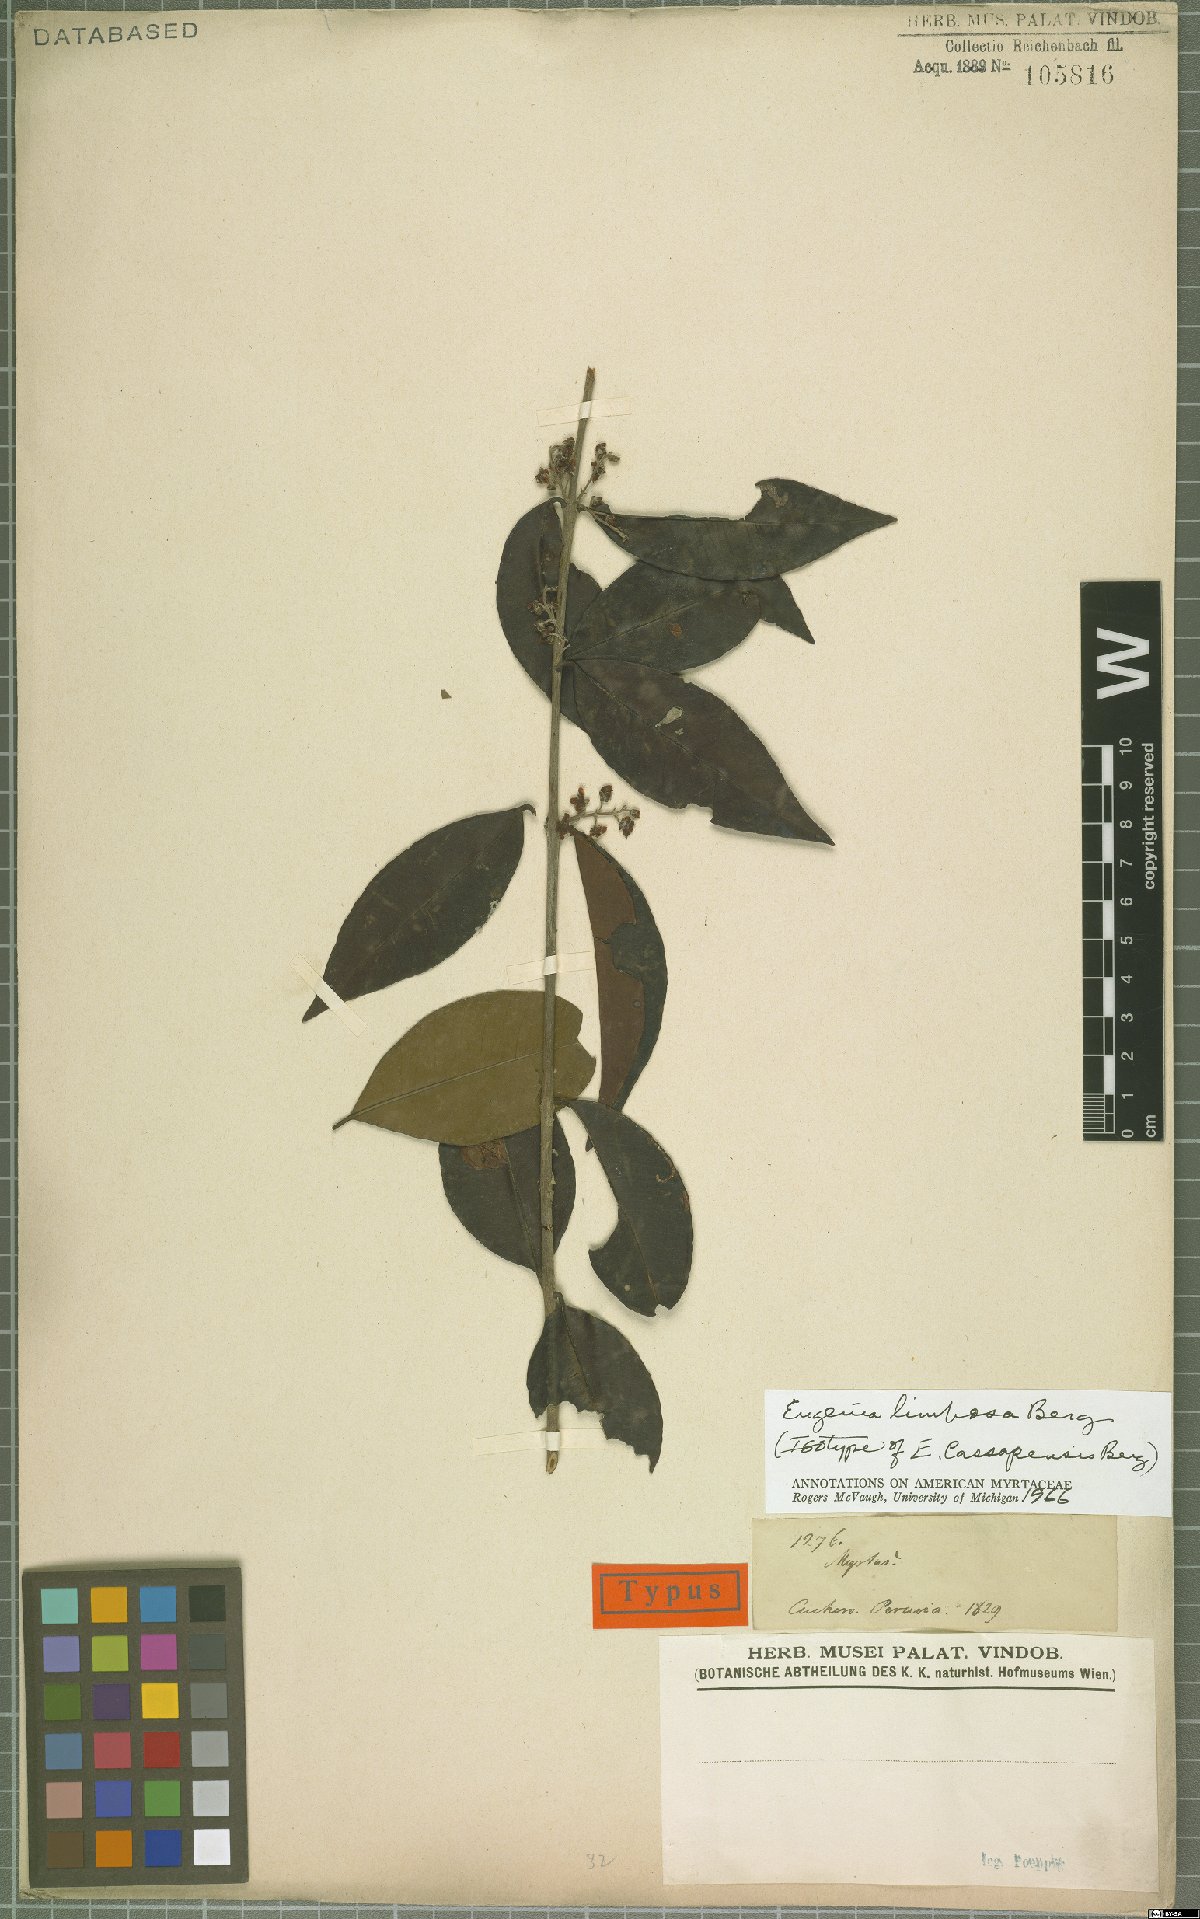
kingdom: Plantae
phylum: Tracheophyta
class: Magnoliopsida
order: Myrtales
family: Myrtaceae
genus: Eugenia
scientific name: Eugenia limbosa
